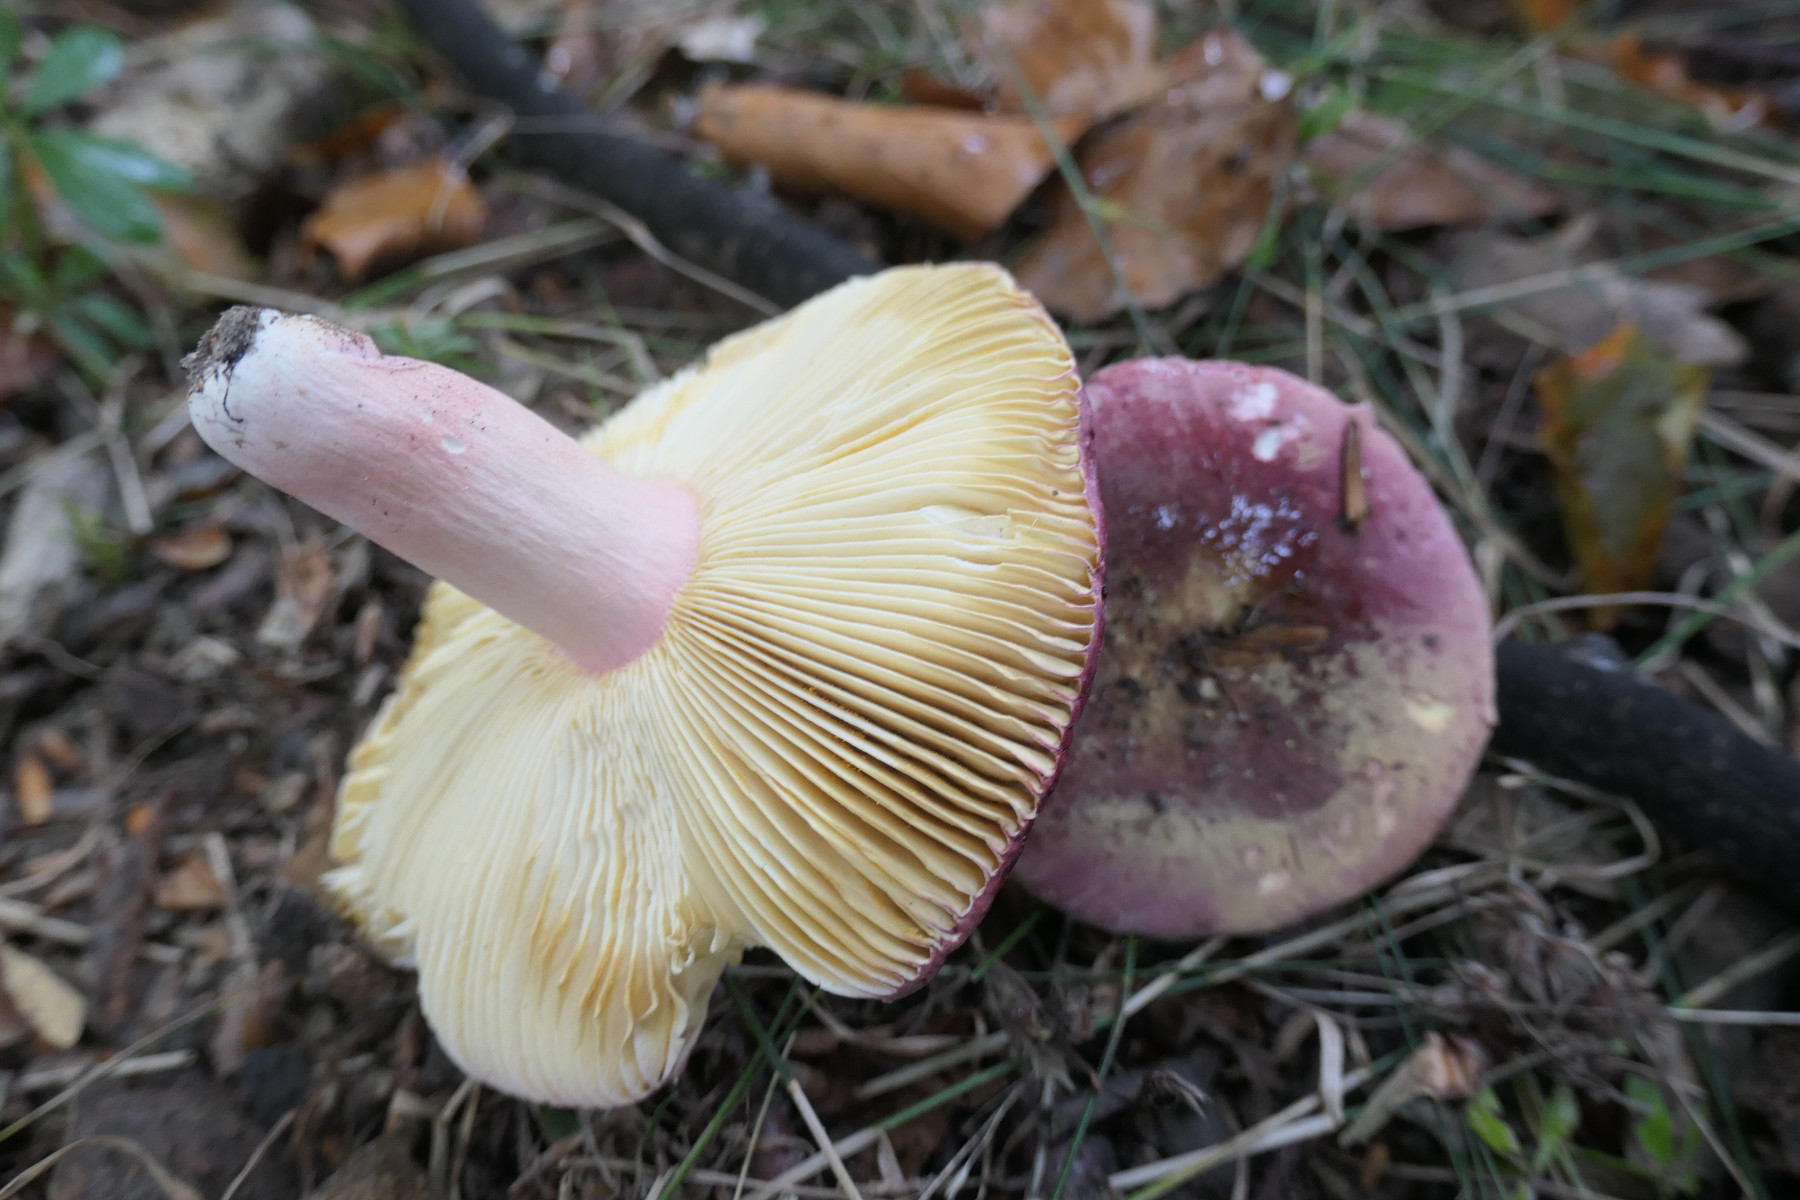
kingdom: Fungi
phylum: Basidiomycota
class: Agaricomycetes
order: Russulales
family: Russulaceae
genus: Russula
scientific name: Russula olivacea
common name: stor skørhat
